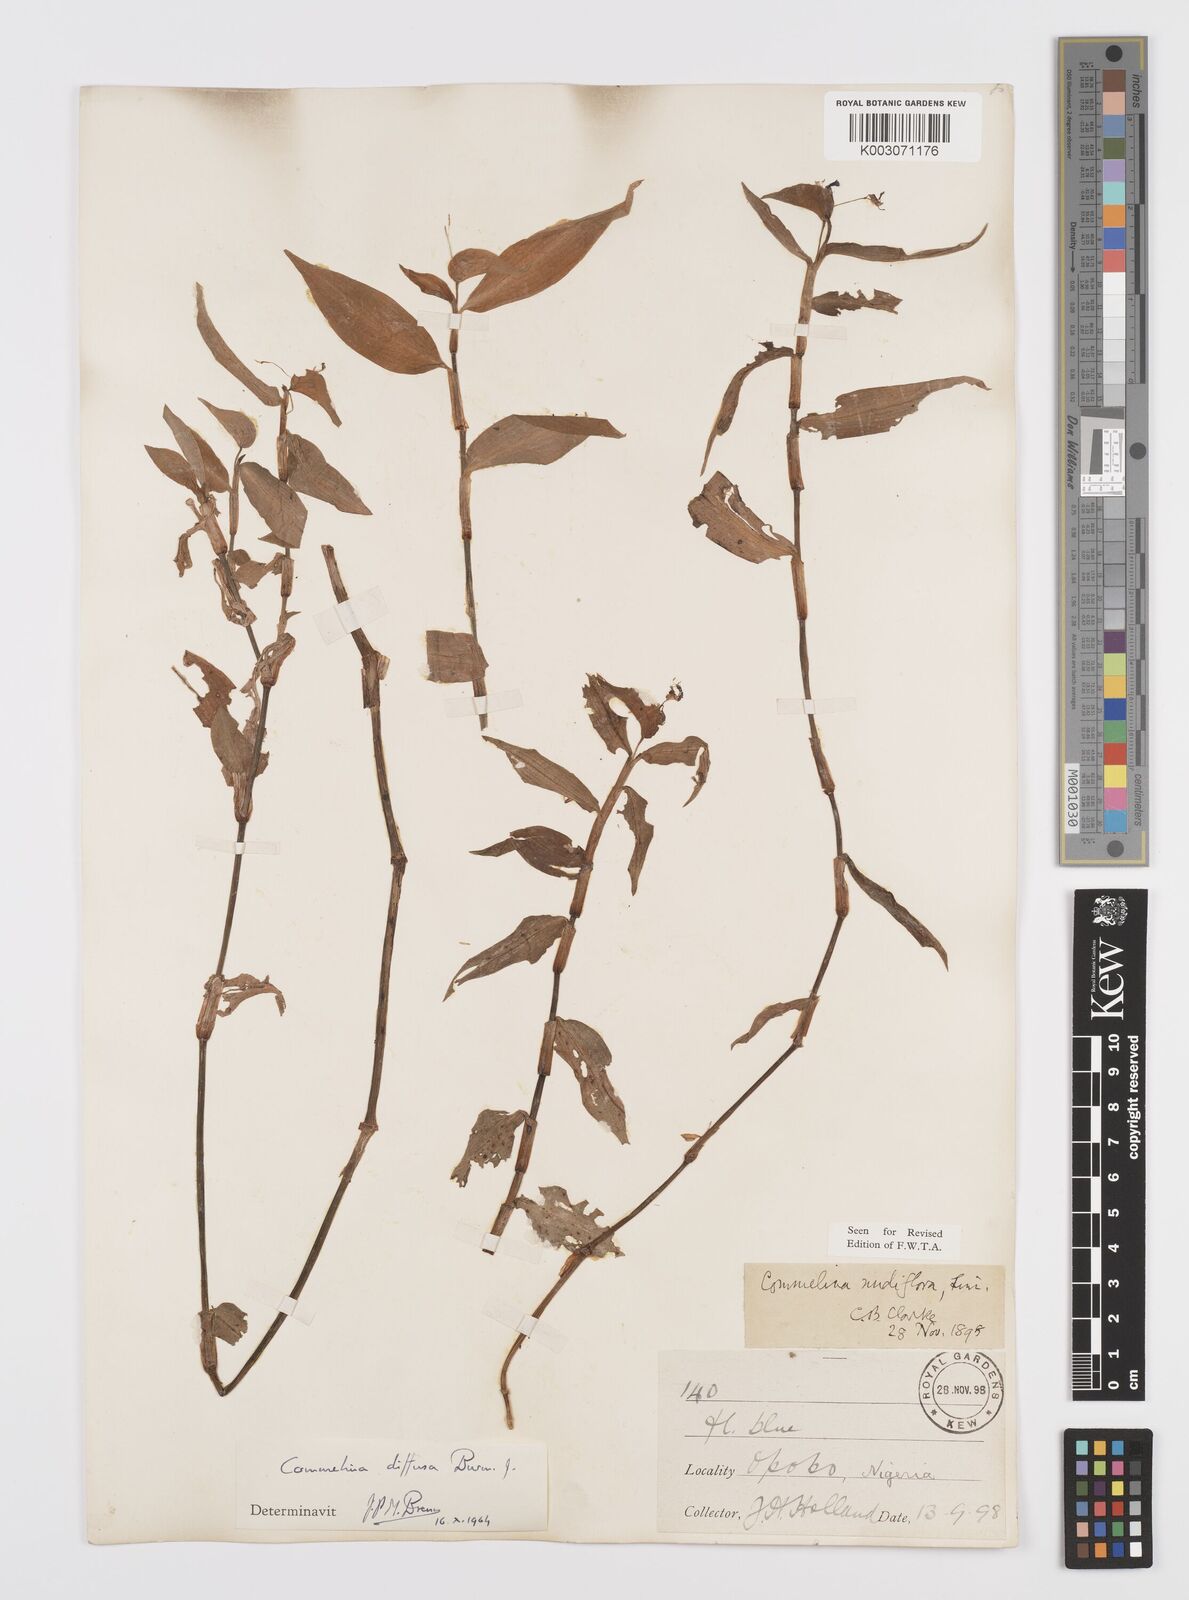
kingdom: Plantae
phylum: Tracheophyta
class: Liliopsida
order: Commelinales
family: Commelinaceae
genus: Commelina
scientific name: Commelina diffusa
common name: Climbing dayflower
